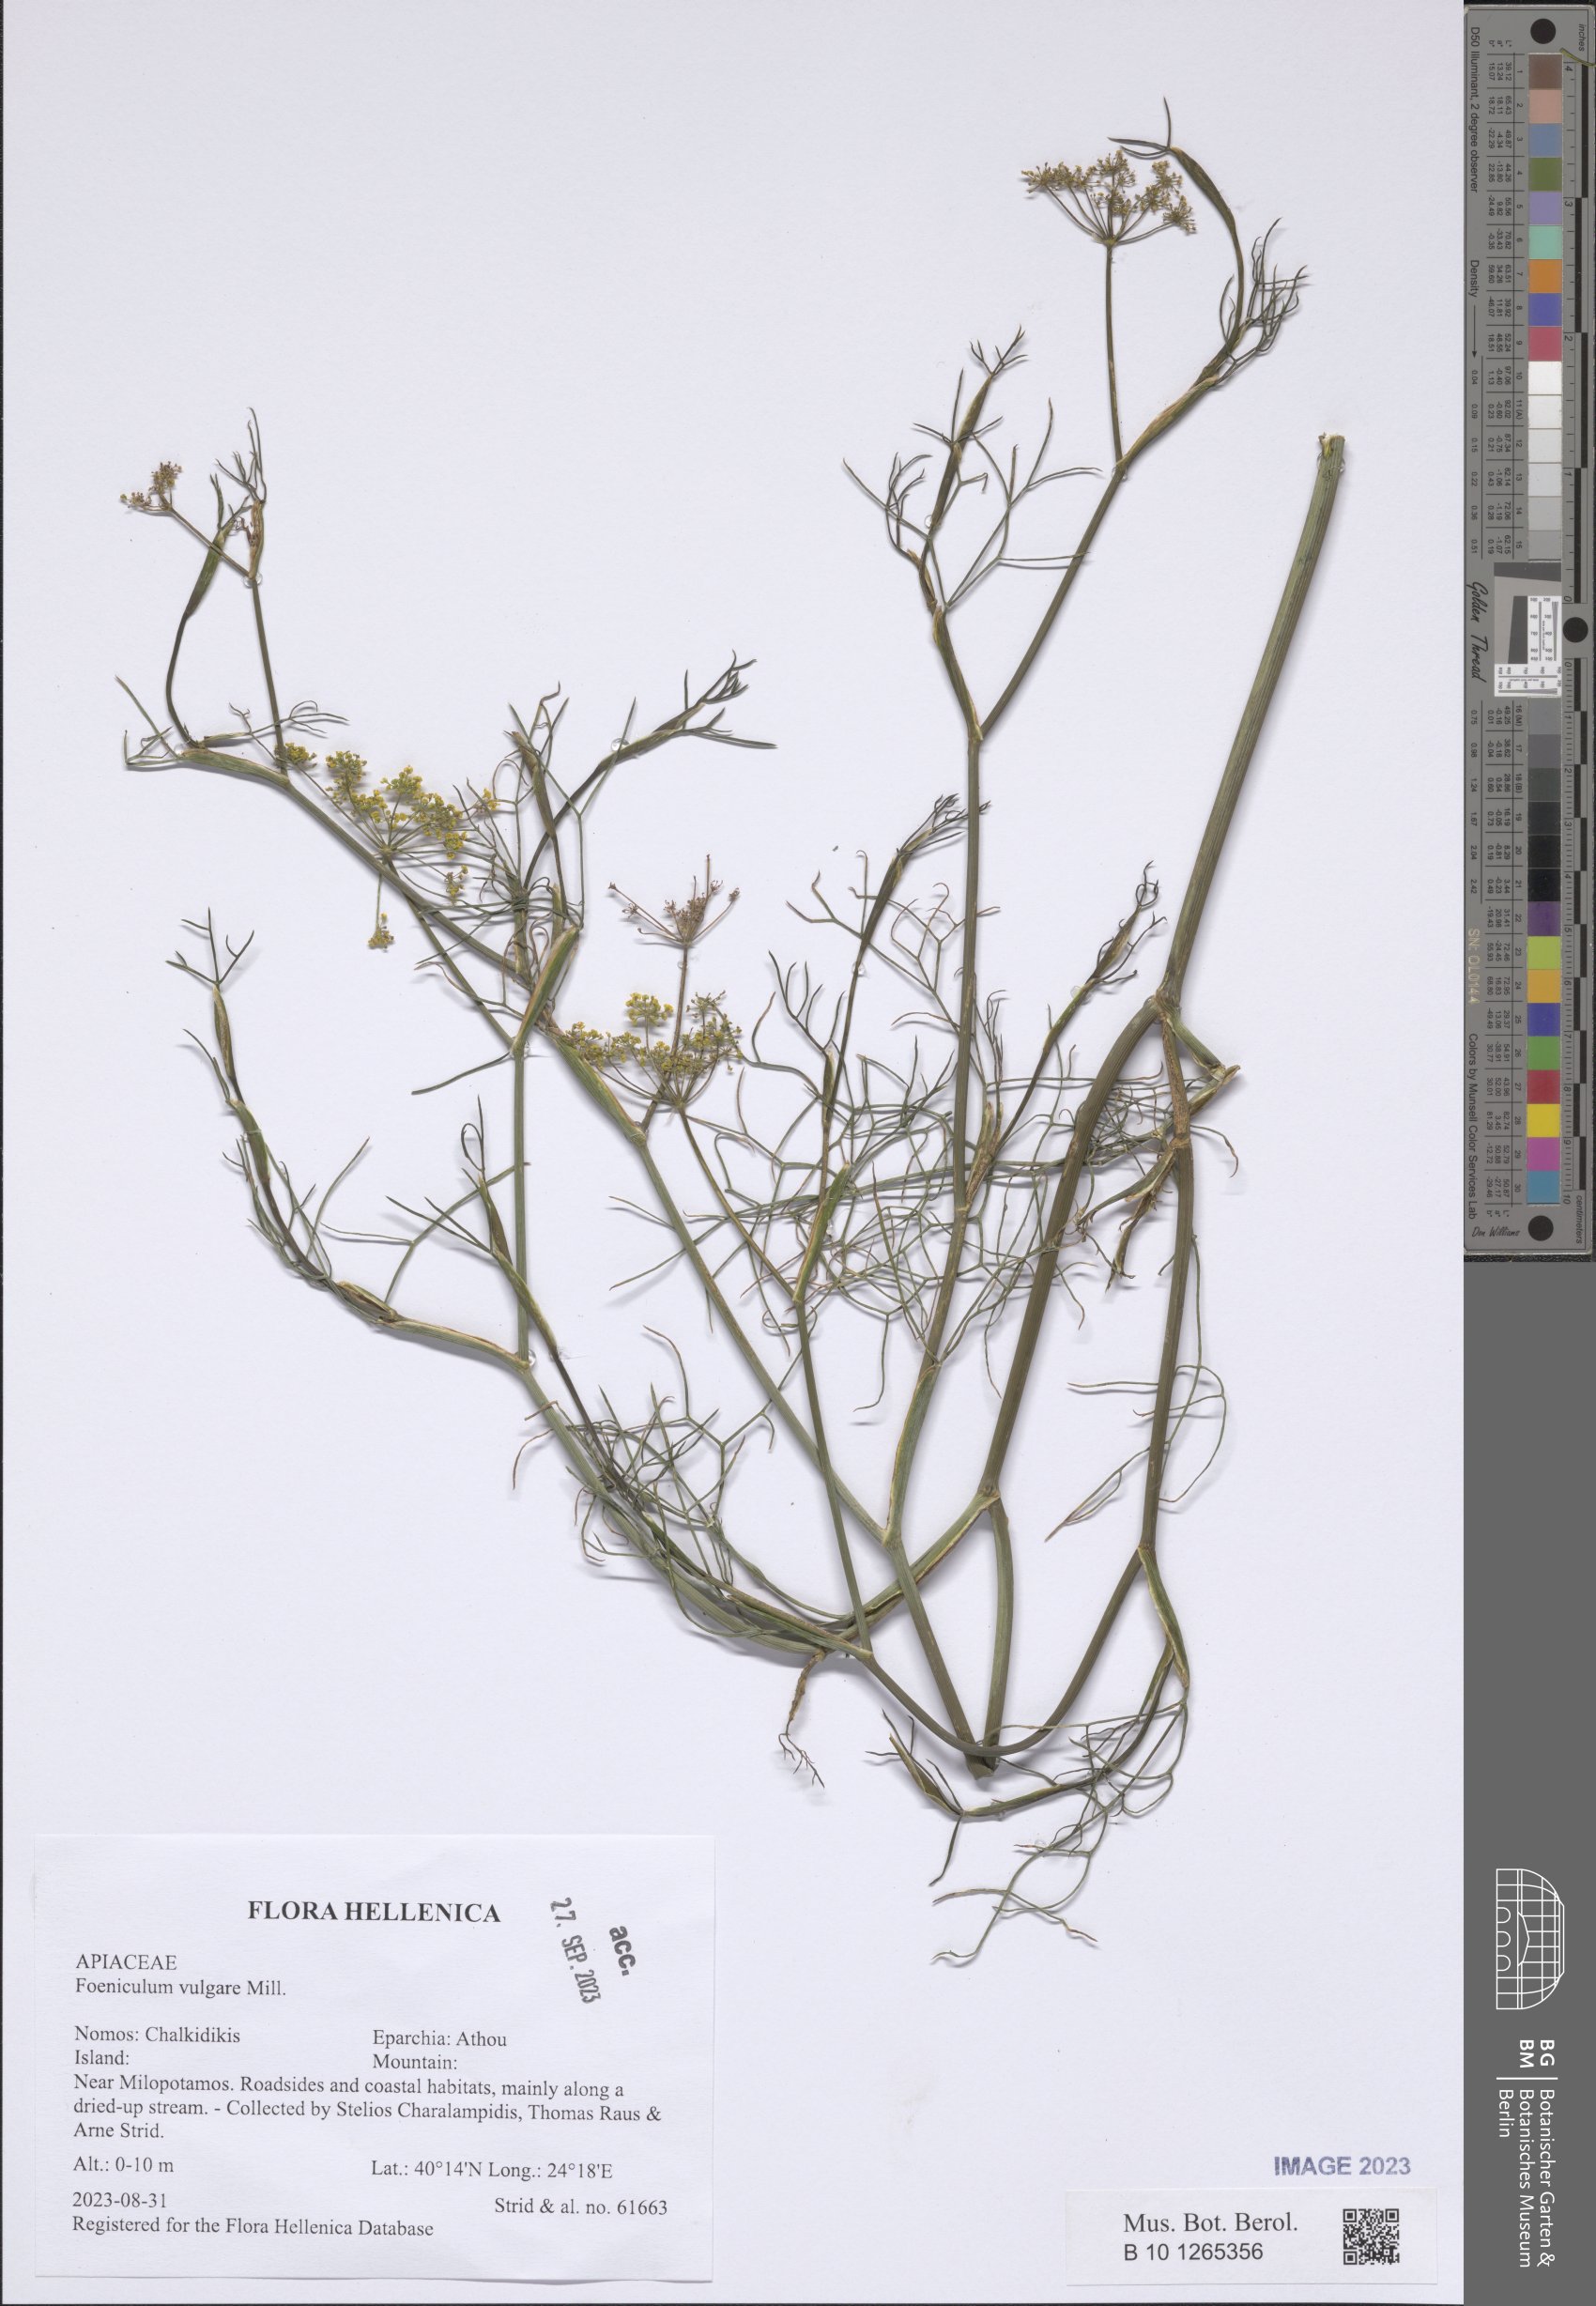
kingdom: Plantae
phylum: Tracheophyta
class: Magnoliopsida
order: Apiales
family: Apiaceae
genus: Foeniculum
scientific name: Foeniculum vulgare
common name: Fennel
